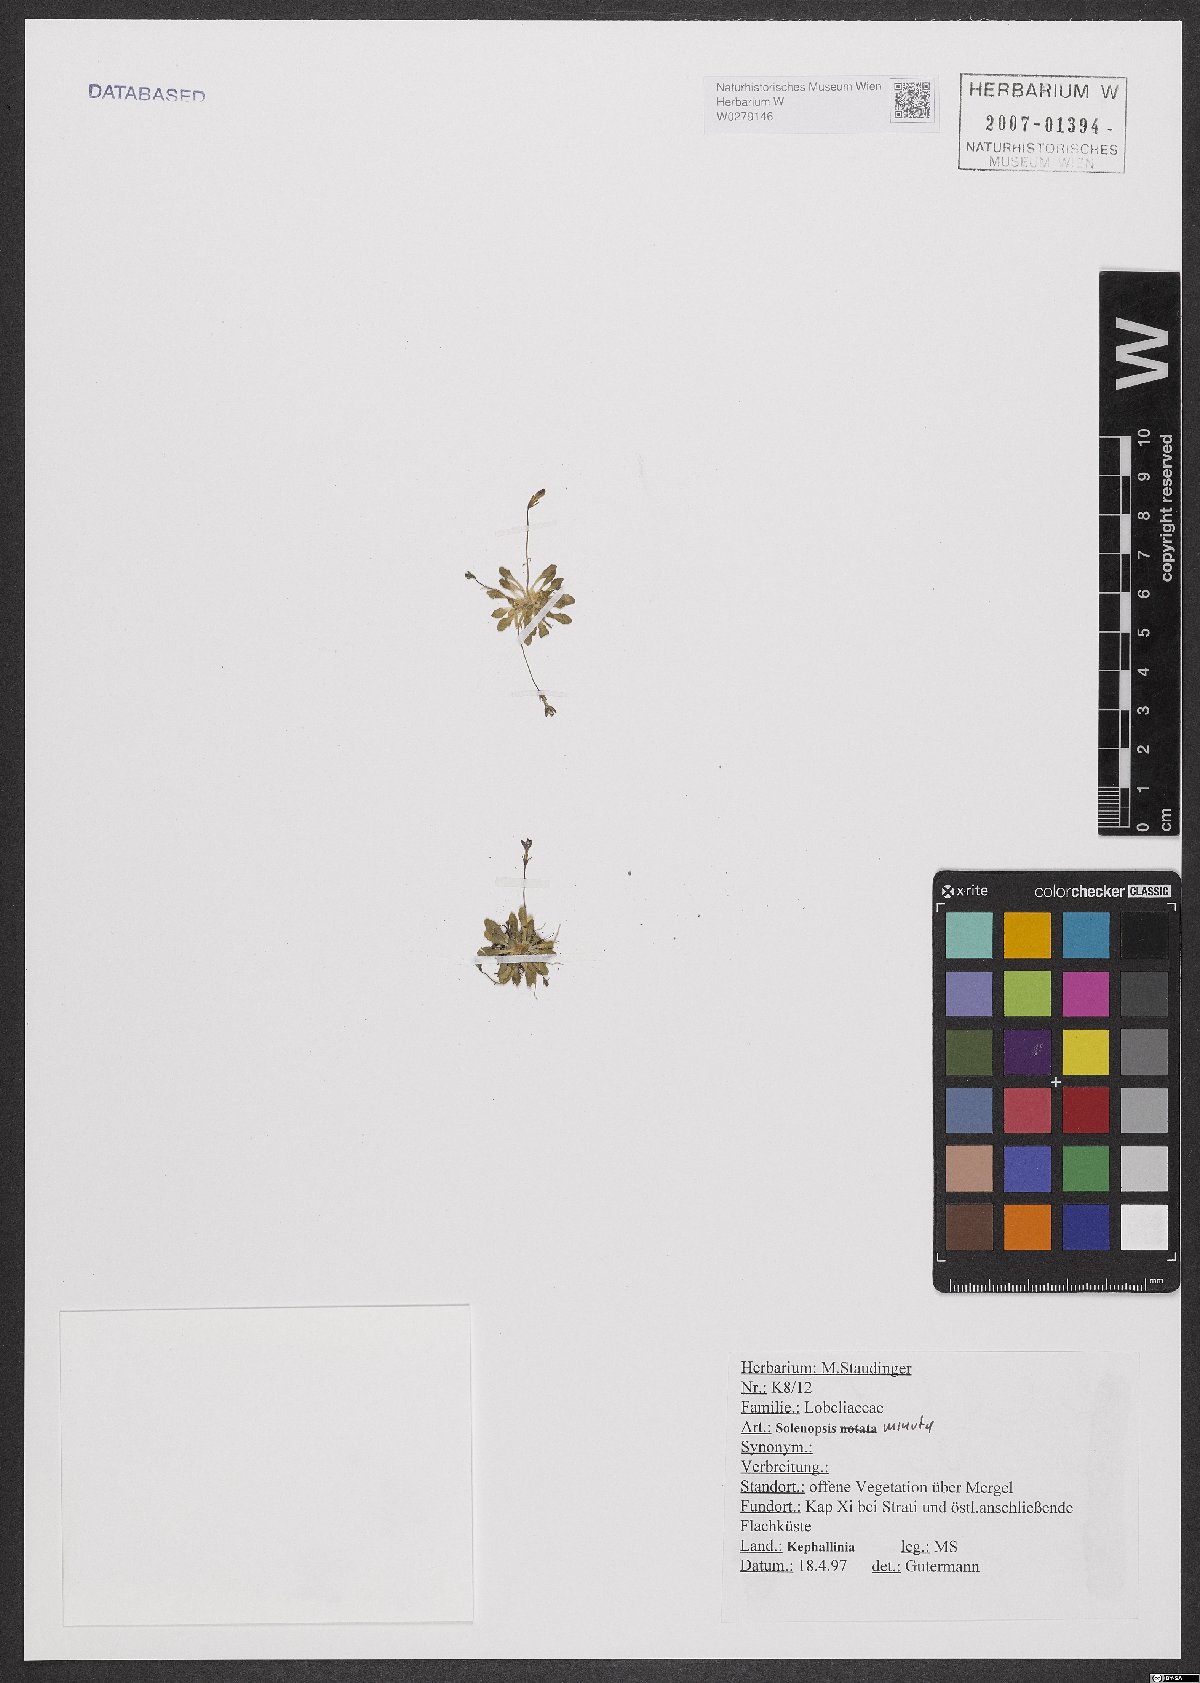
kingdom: Plantae
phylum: Tracheophyta
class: Magnoliopsida
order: Asterales
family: Campanulaceae
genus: Solenopsis
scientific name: Solenopsis minuta
